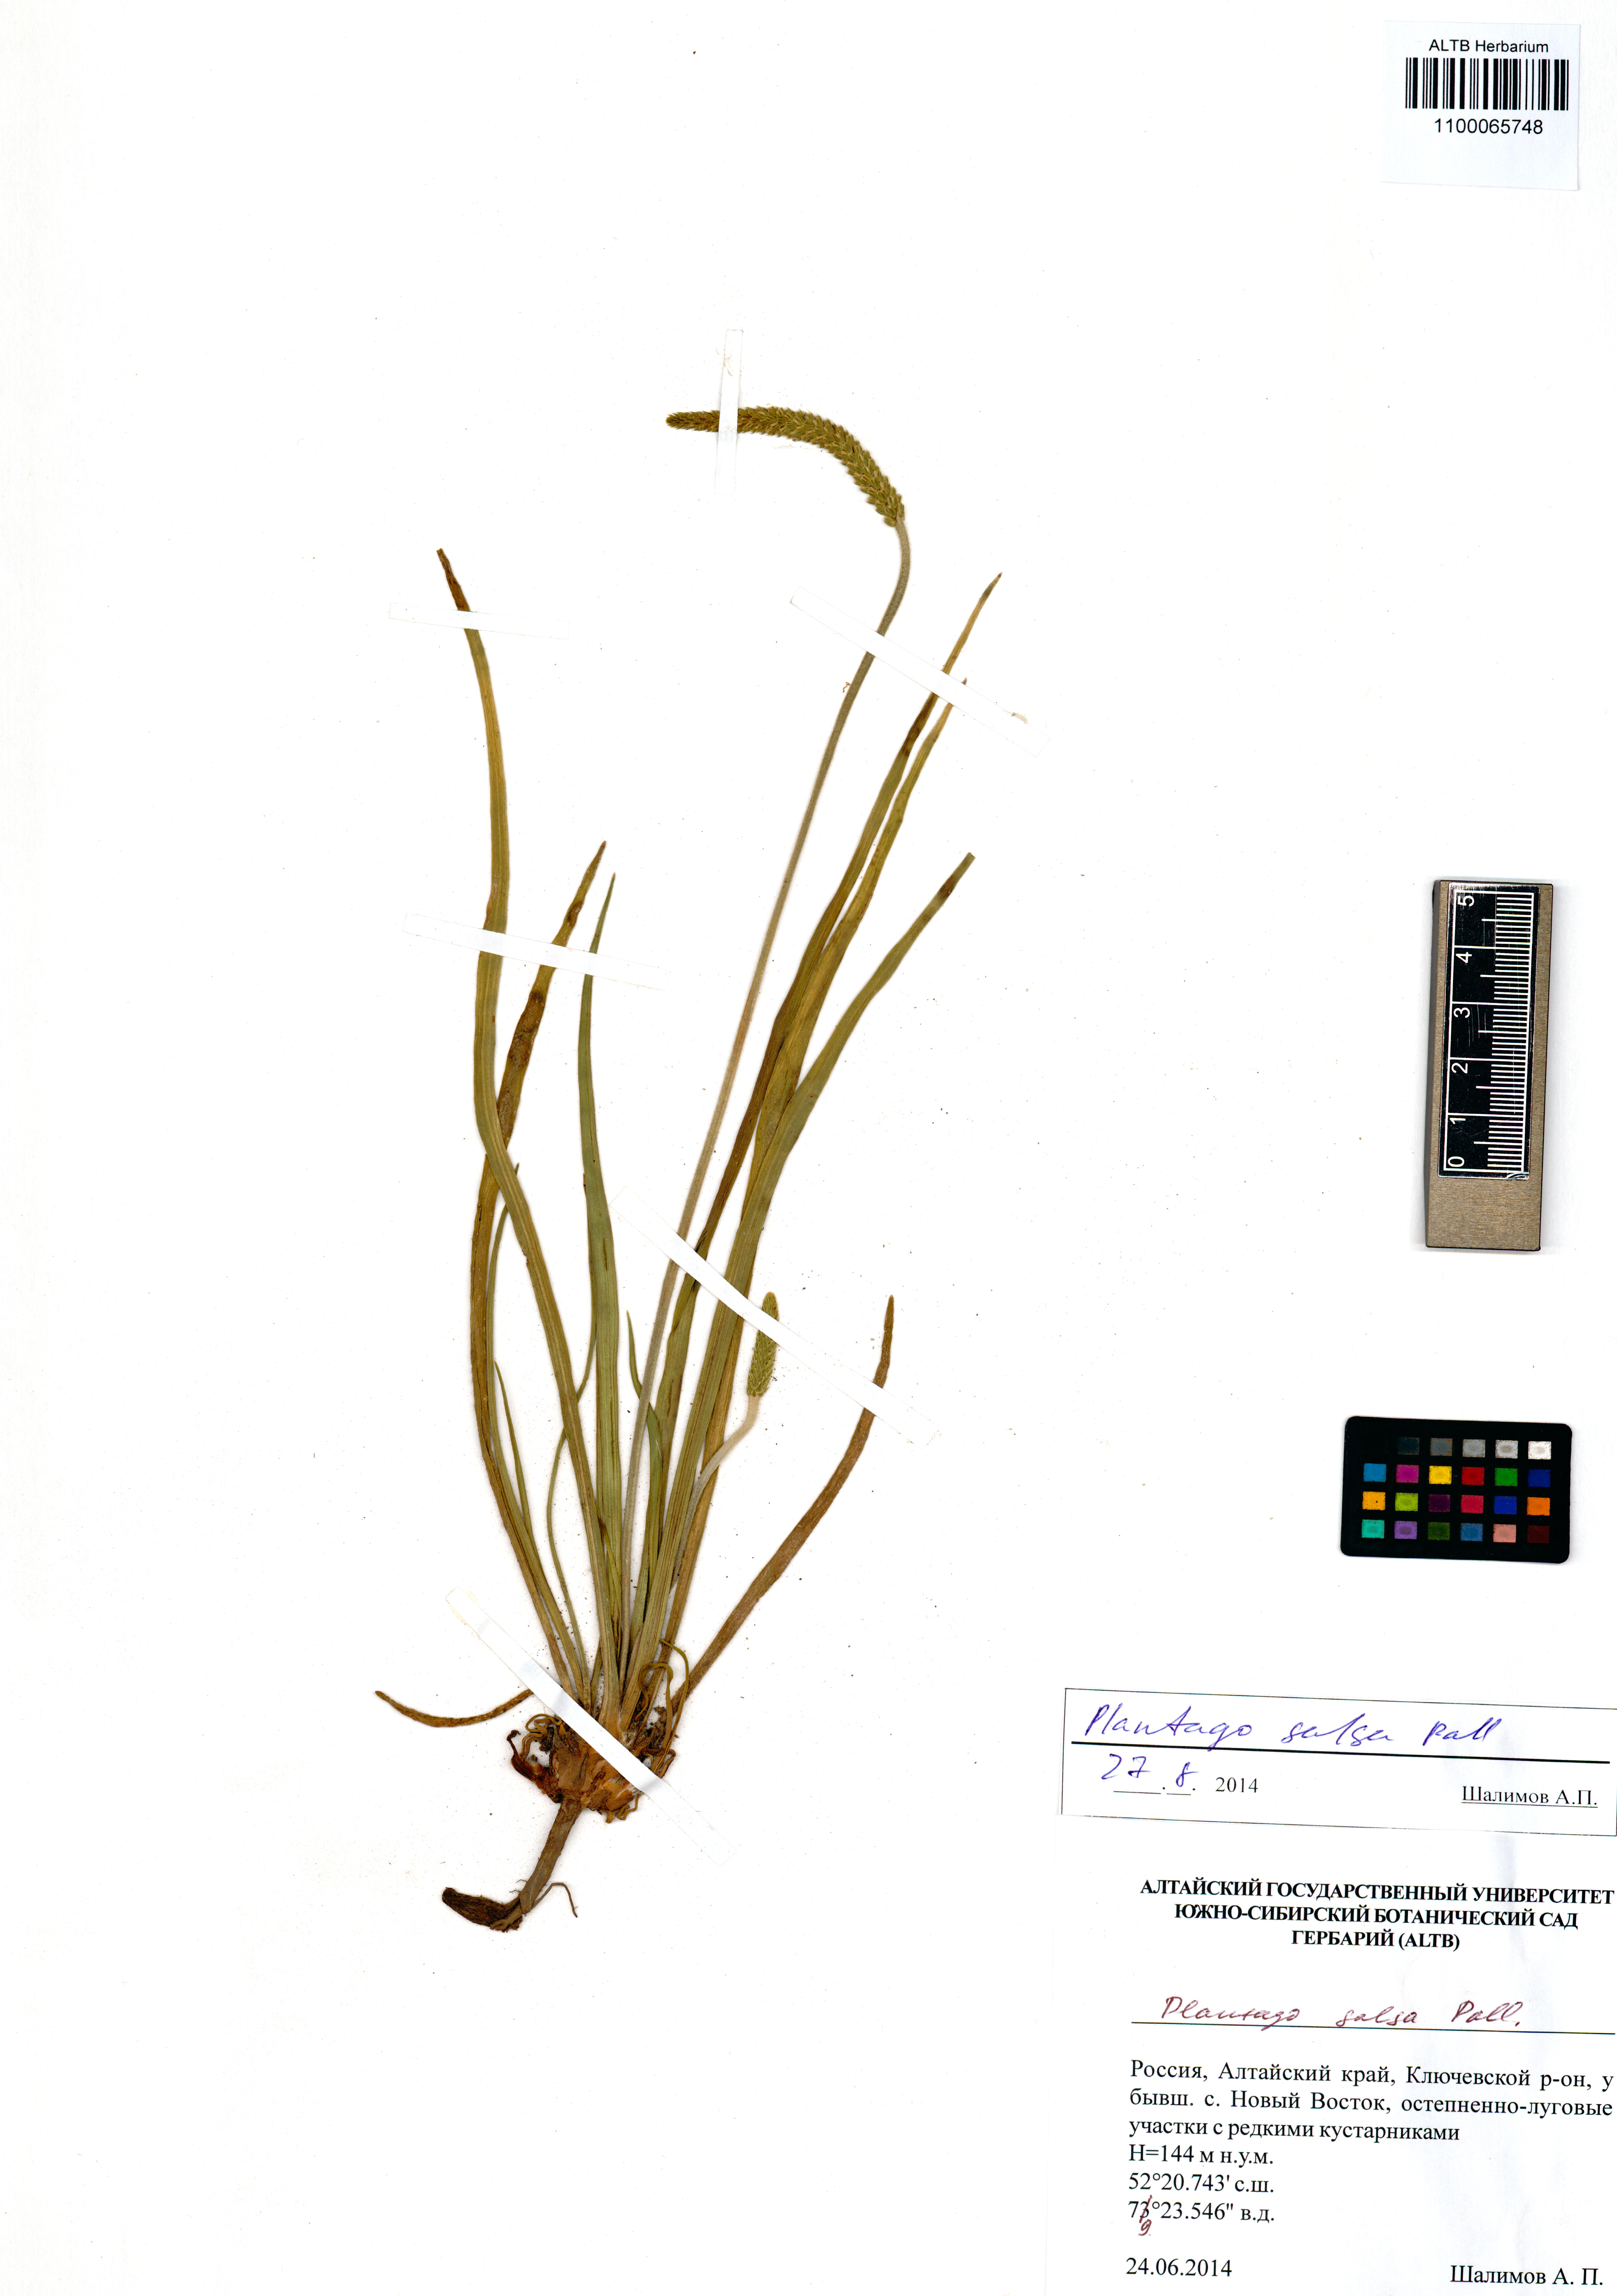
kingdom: Plantae
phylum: Tracheophyta
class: Magnoliopsida
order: Lamiales
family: Plantaginaceae
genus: Plantago
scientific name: Plantago salsa
